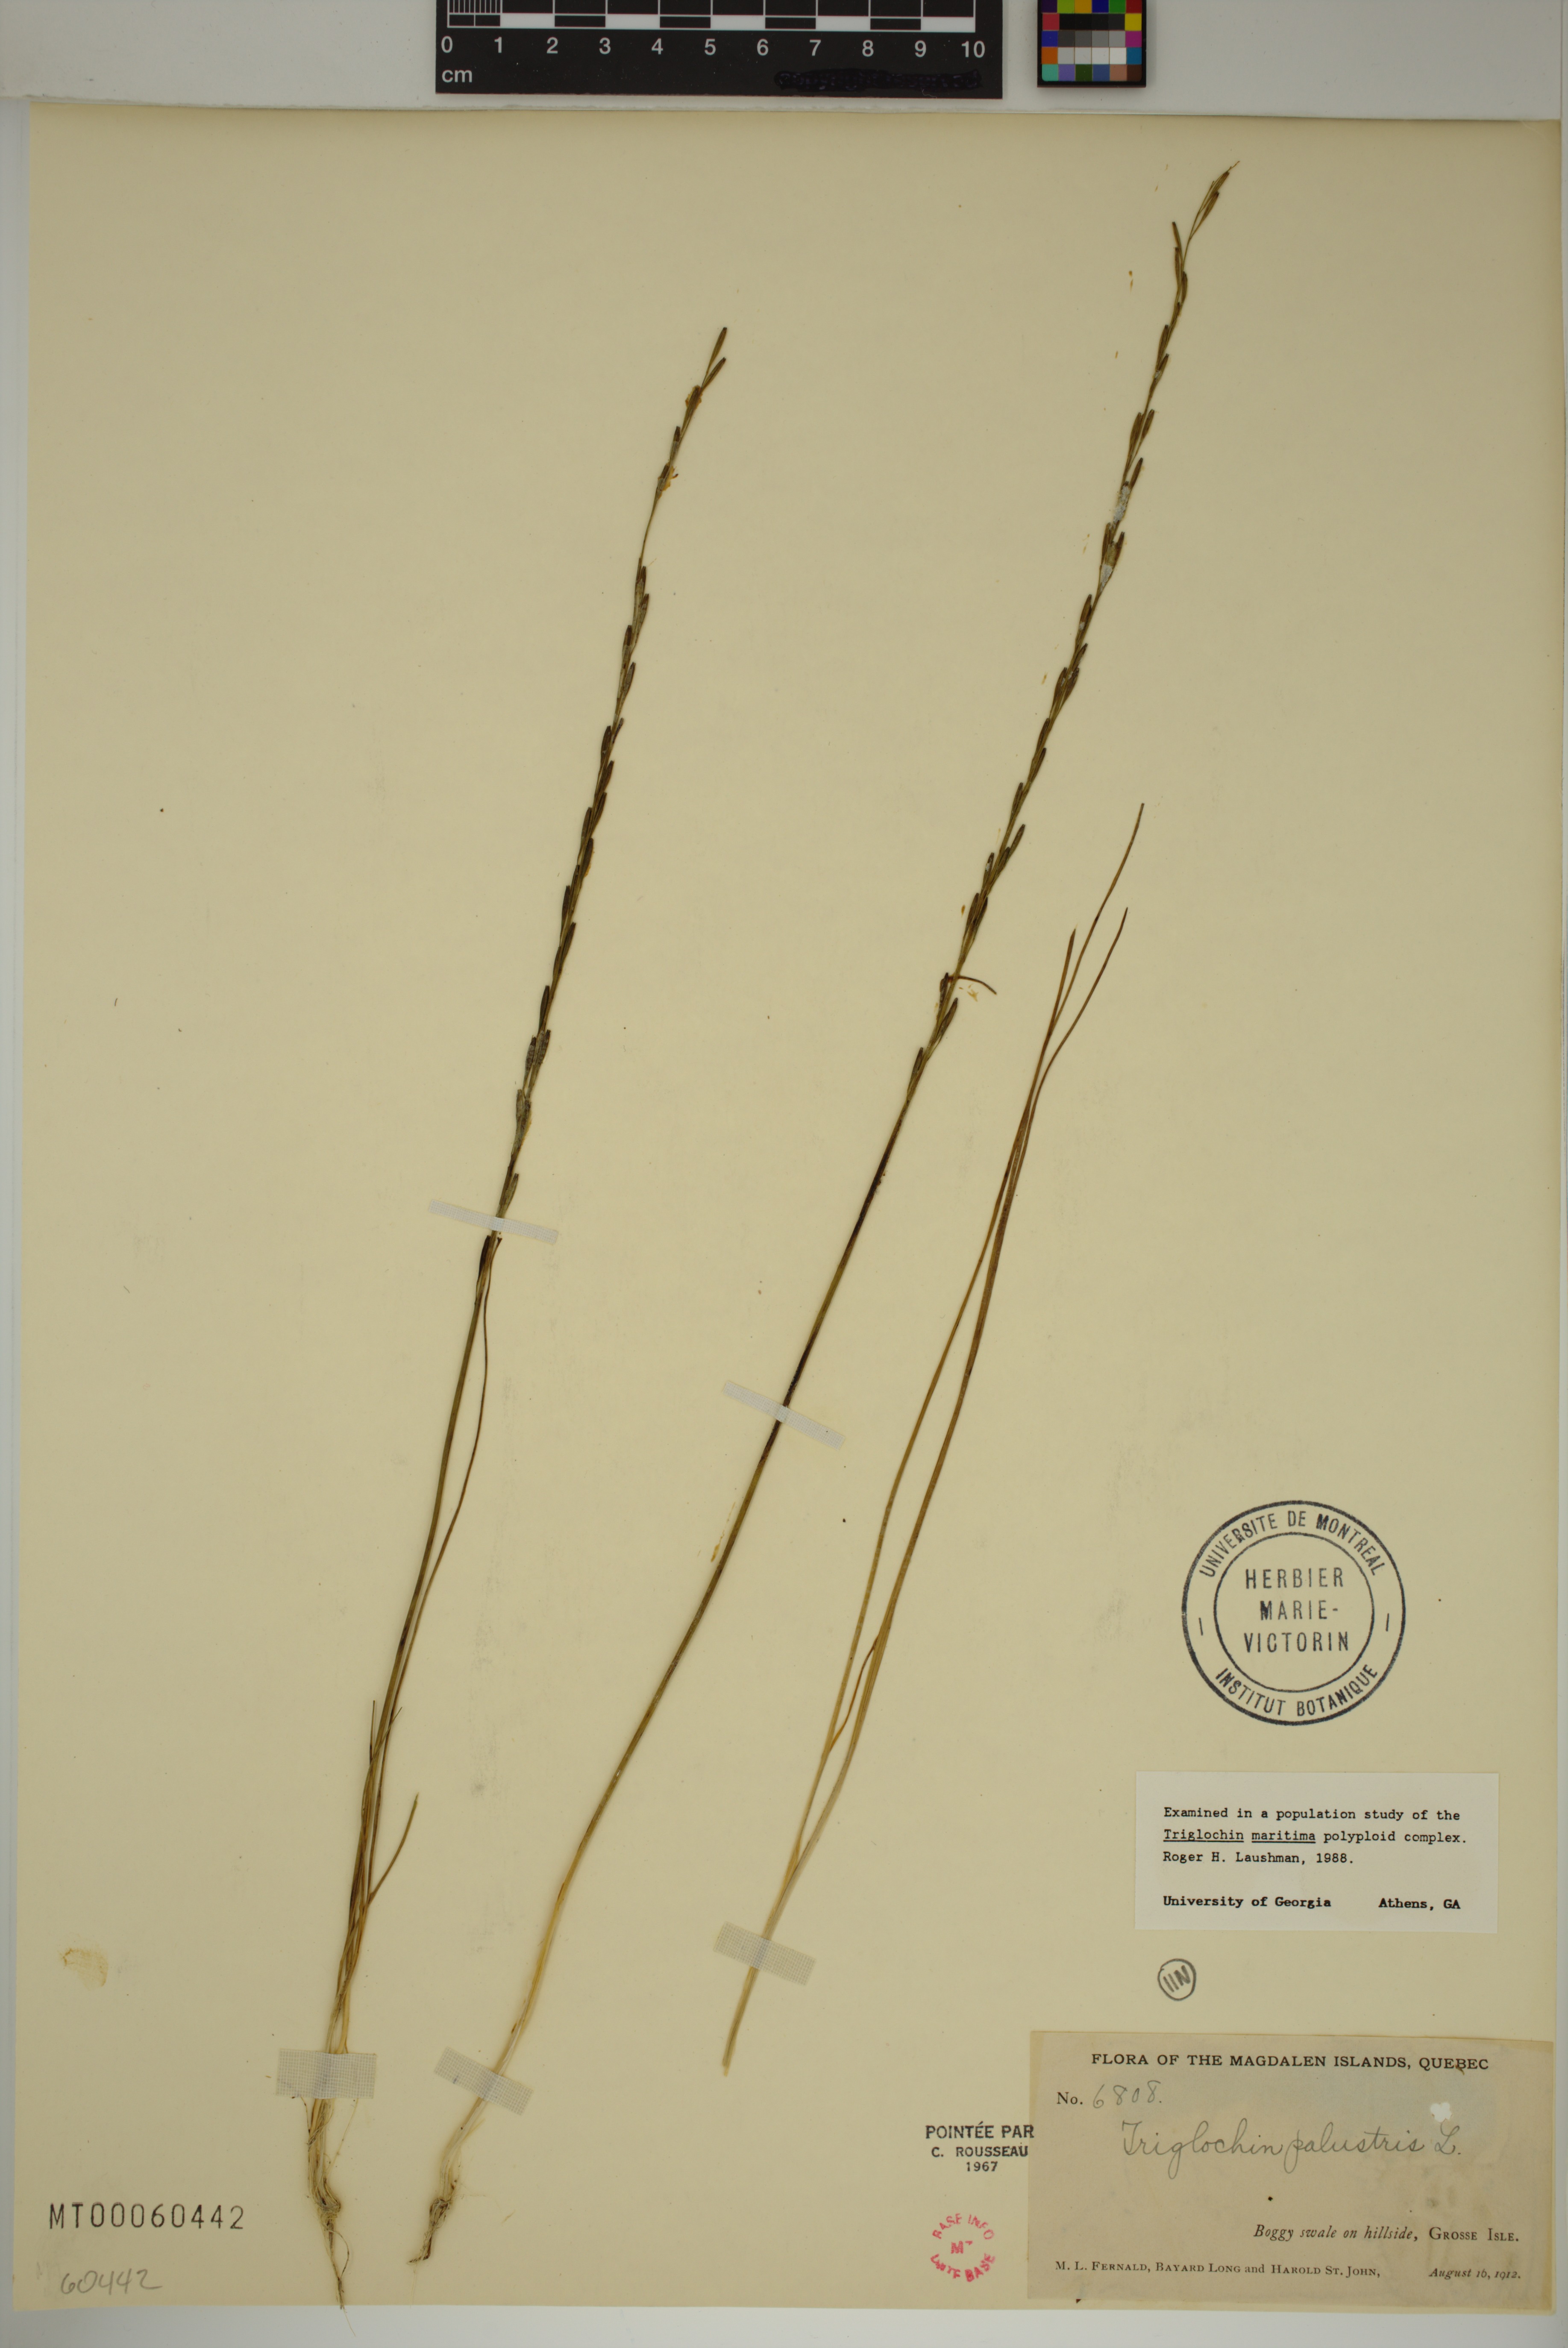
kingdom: Plantae
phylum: Tracheophyta
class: Liliopsida
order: Alismatales
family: Juncaginaceae
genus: Triglochin
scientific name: Triglochin palustris
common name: Marsh arrowgrass
